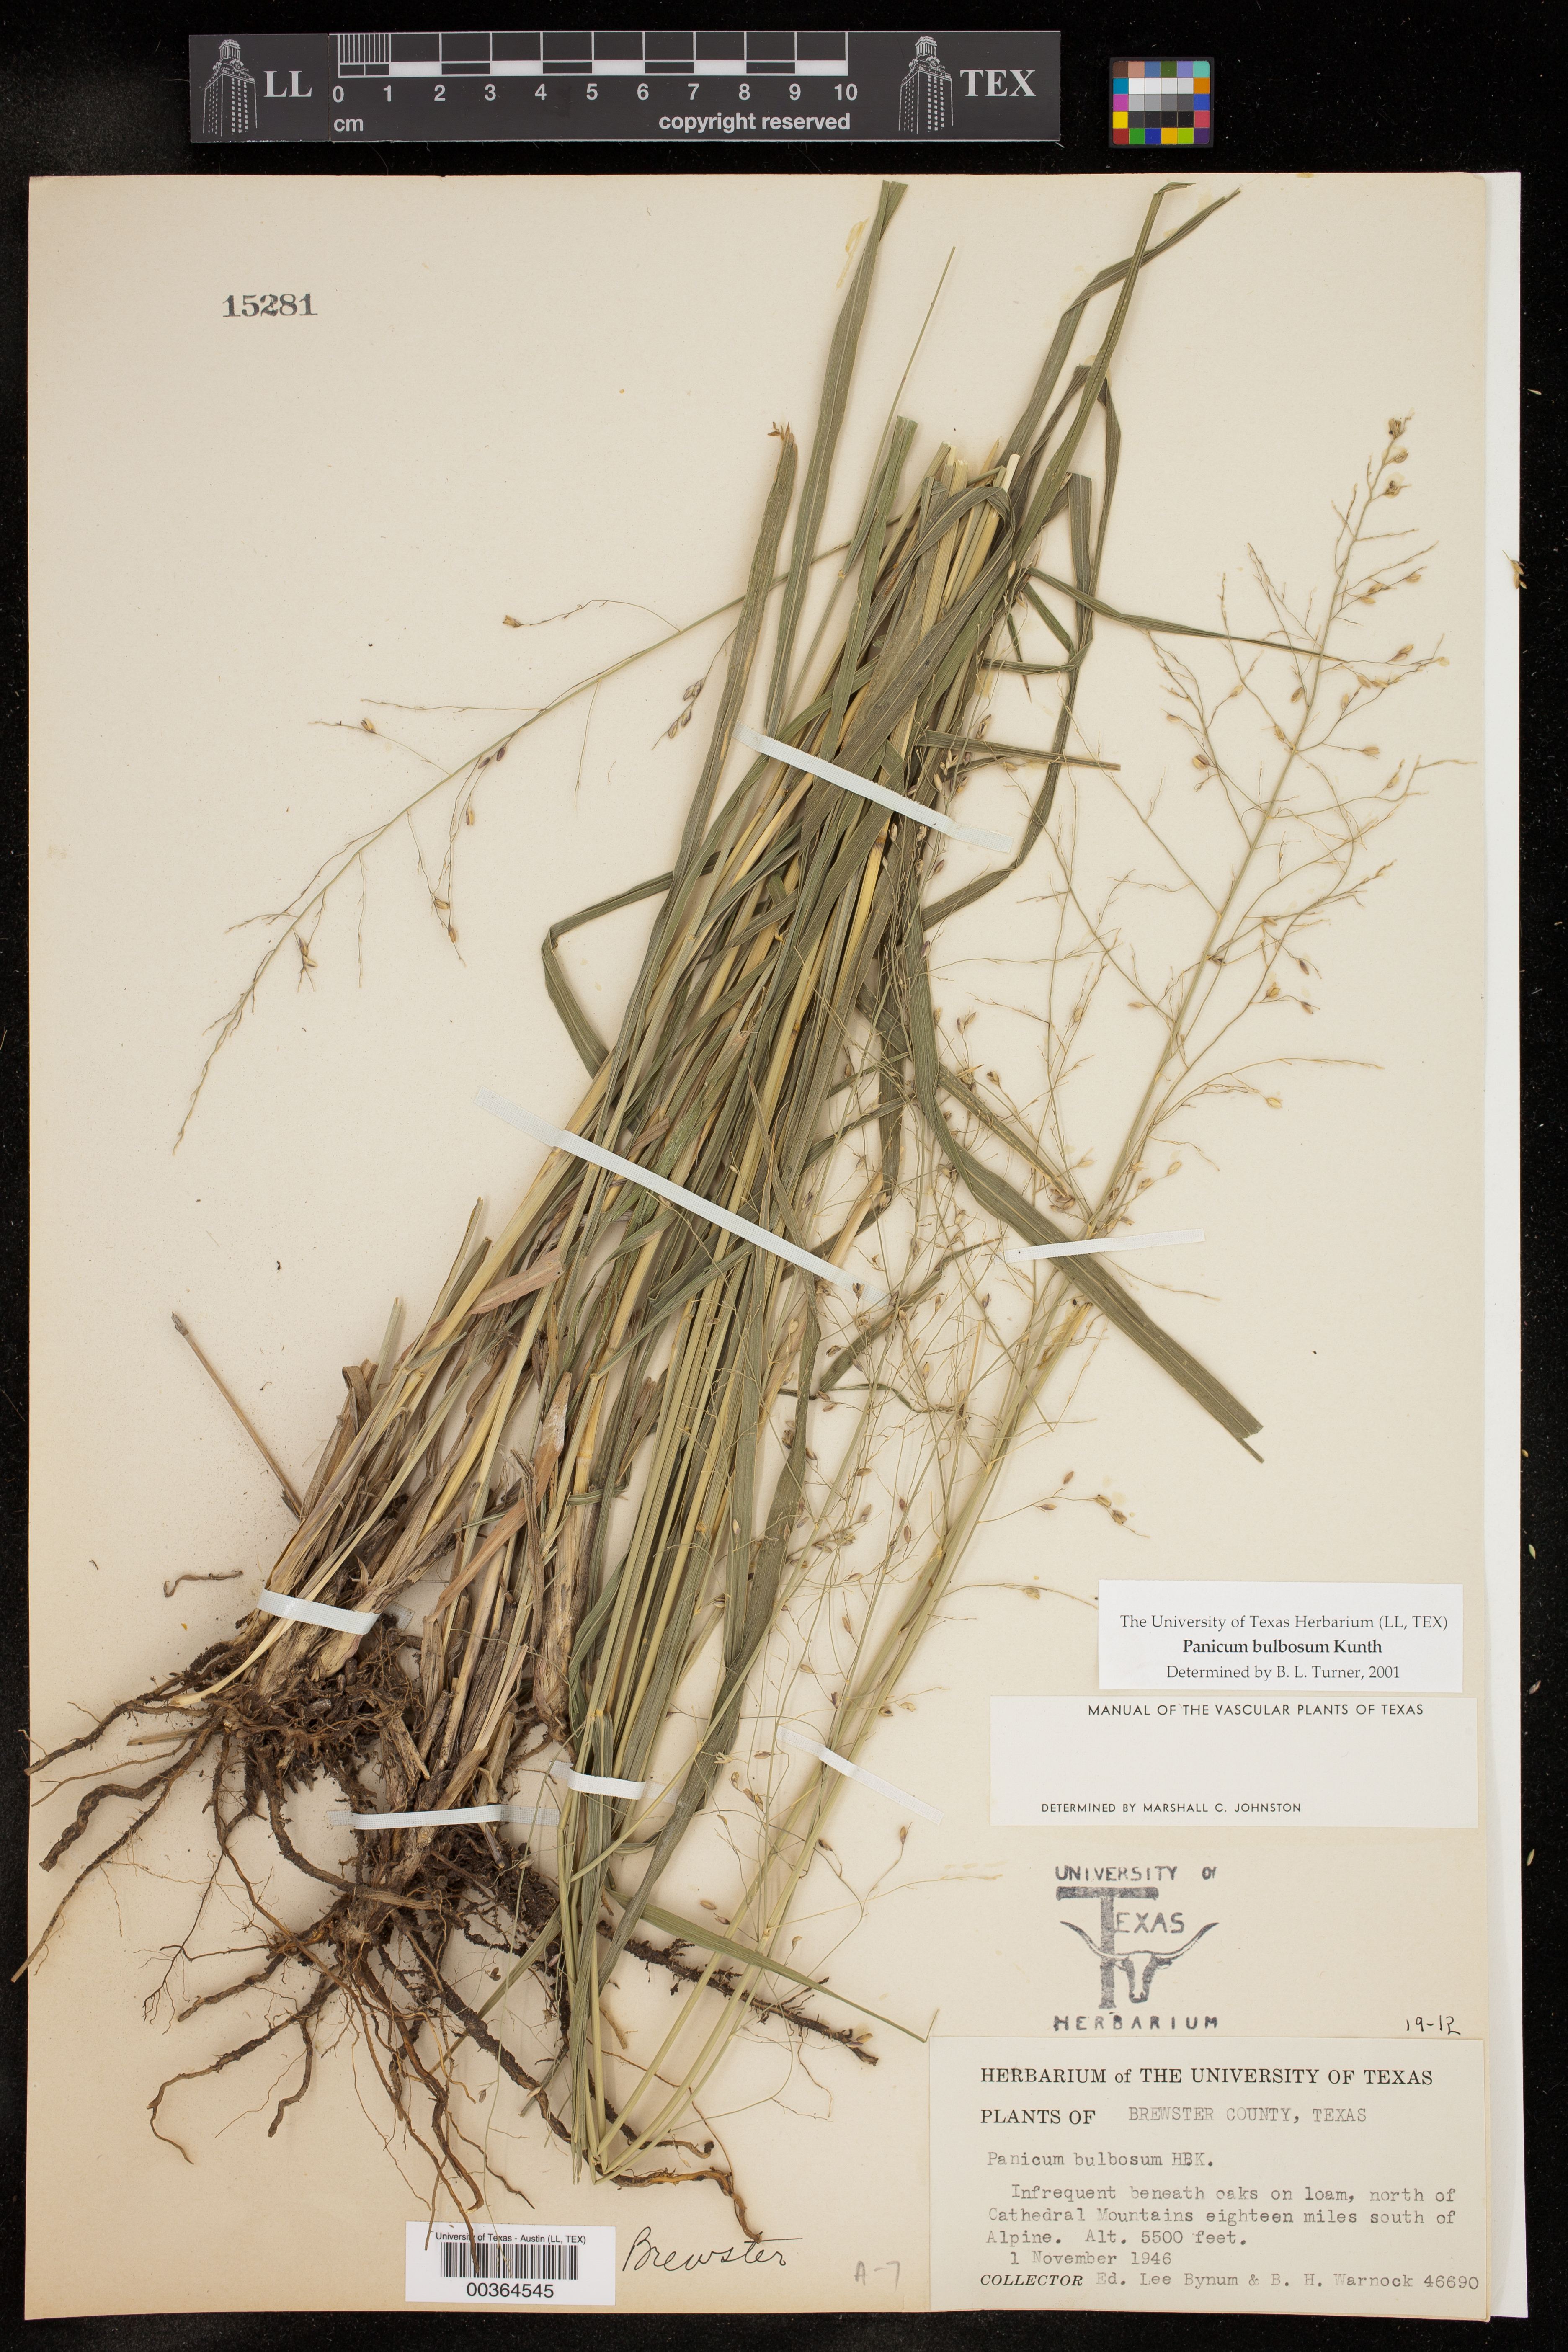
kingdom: Plantae
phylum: Tracheophyta
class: Liliopsida
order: Poales
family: Poaceae
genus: Zuloagaea
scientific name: Zuloagaea bulbosa
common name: Canyon panic grass
